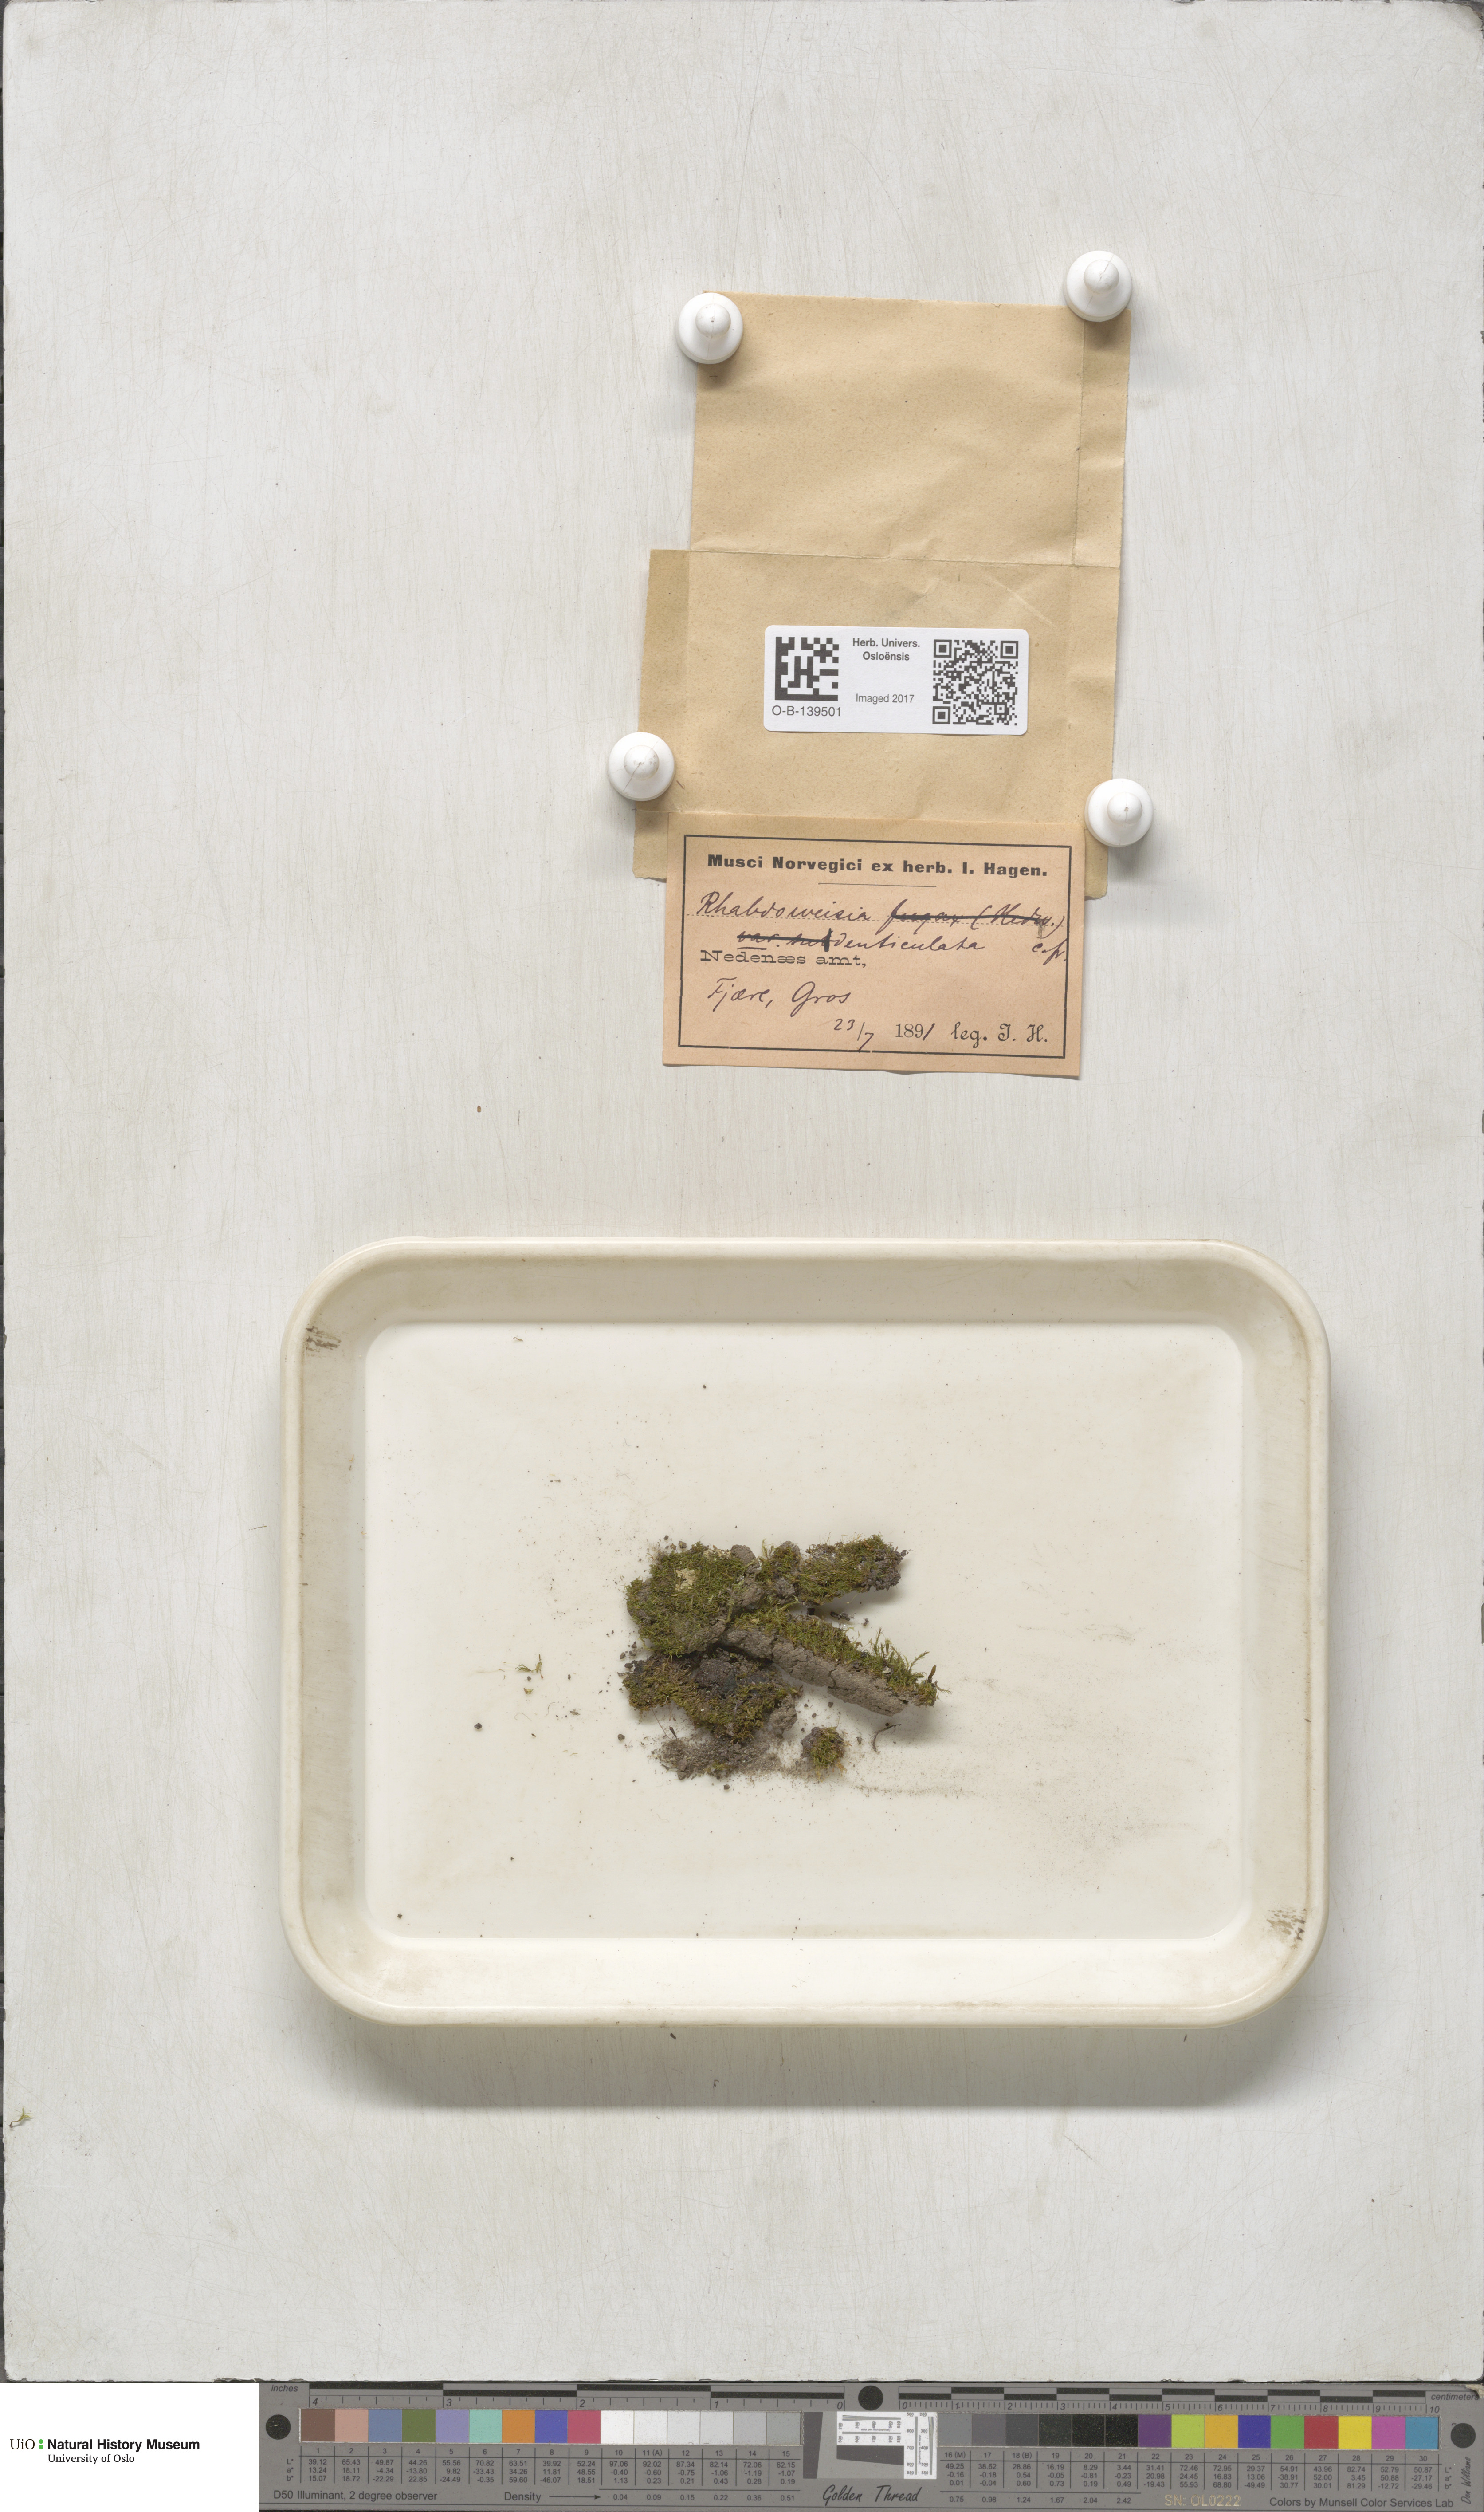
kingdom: Plantae
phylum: Bryophyta
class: Bryopsida
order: Dicranales
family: Rhabdoweisiaceae
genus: Rhabdoweisia
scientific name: Rhabdoweisia crispata
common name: Fine-toothed streak moss
